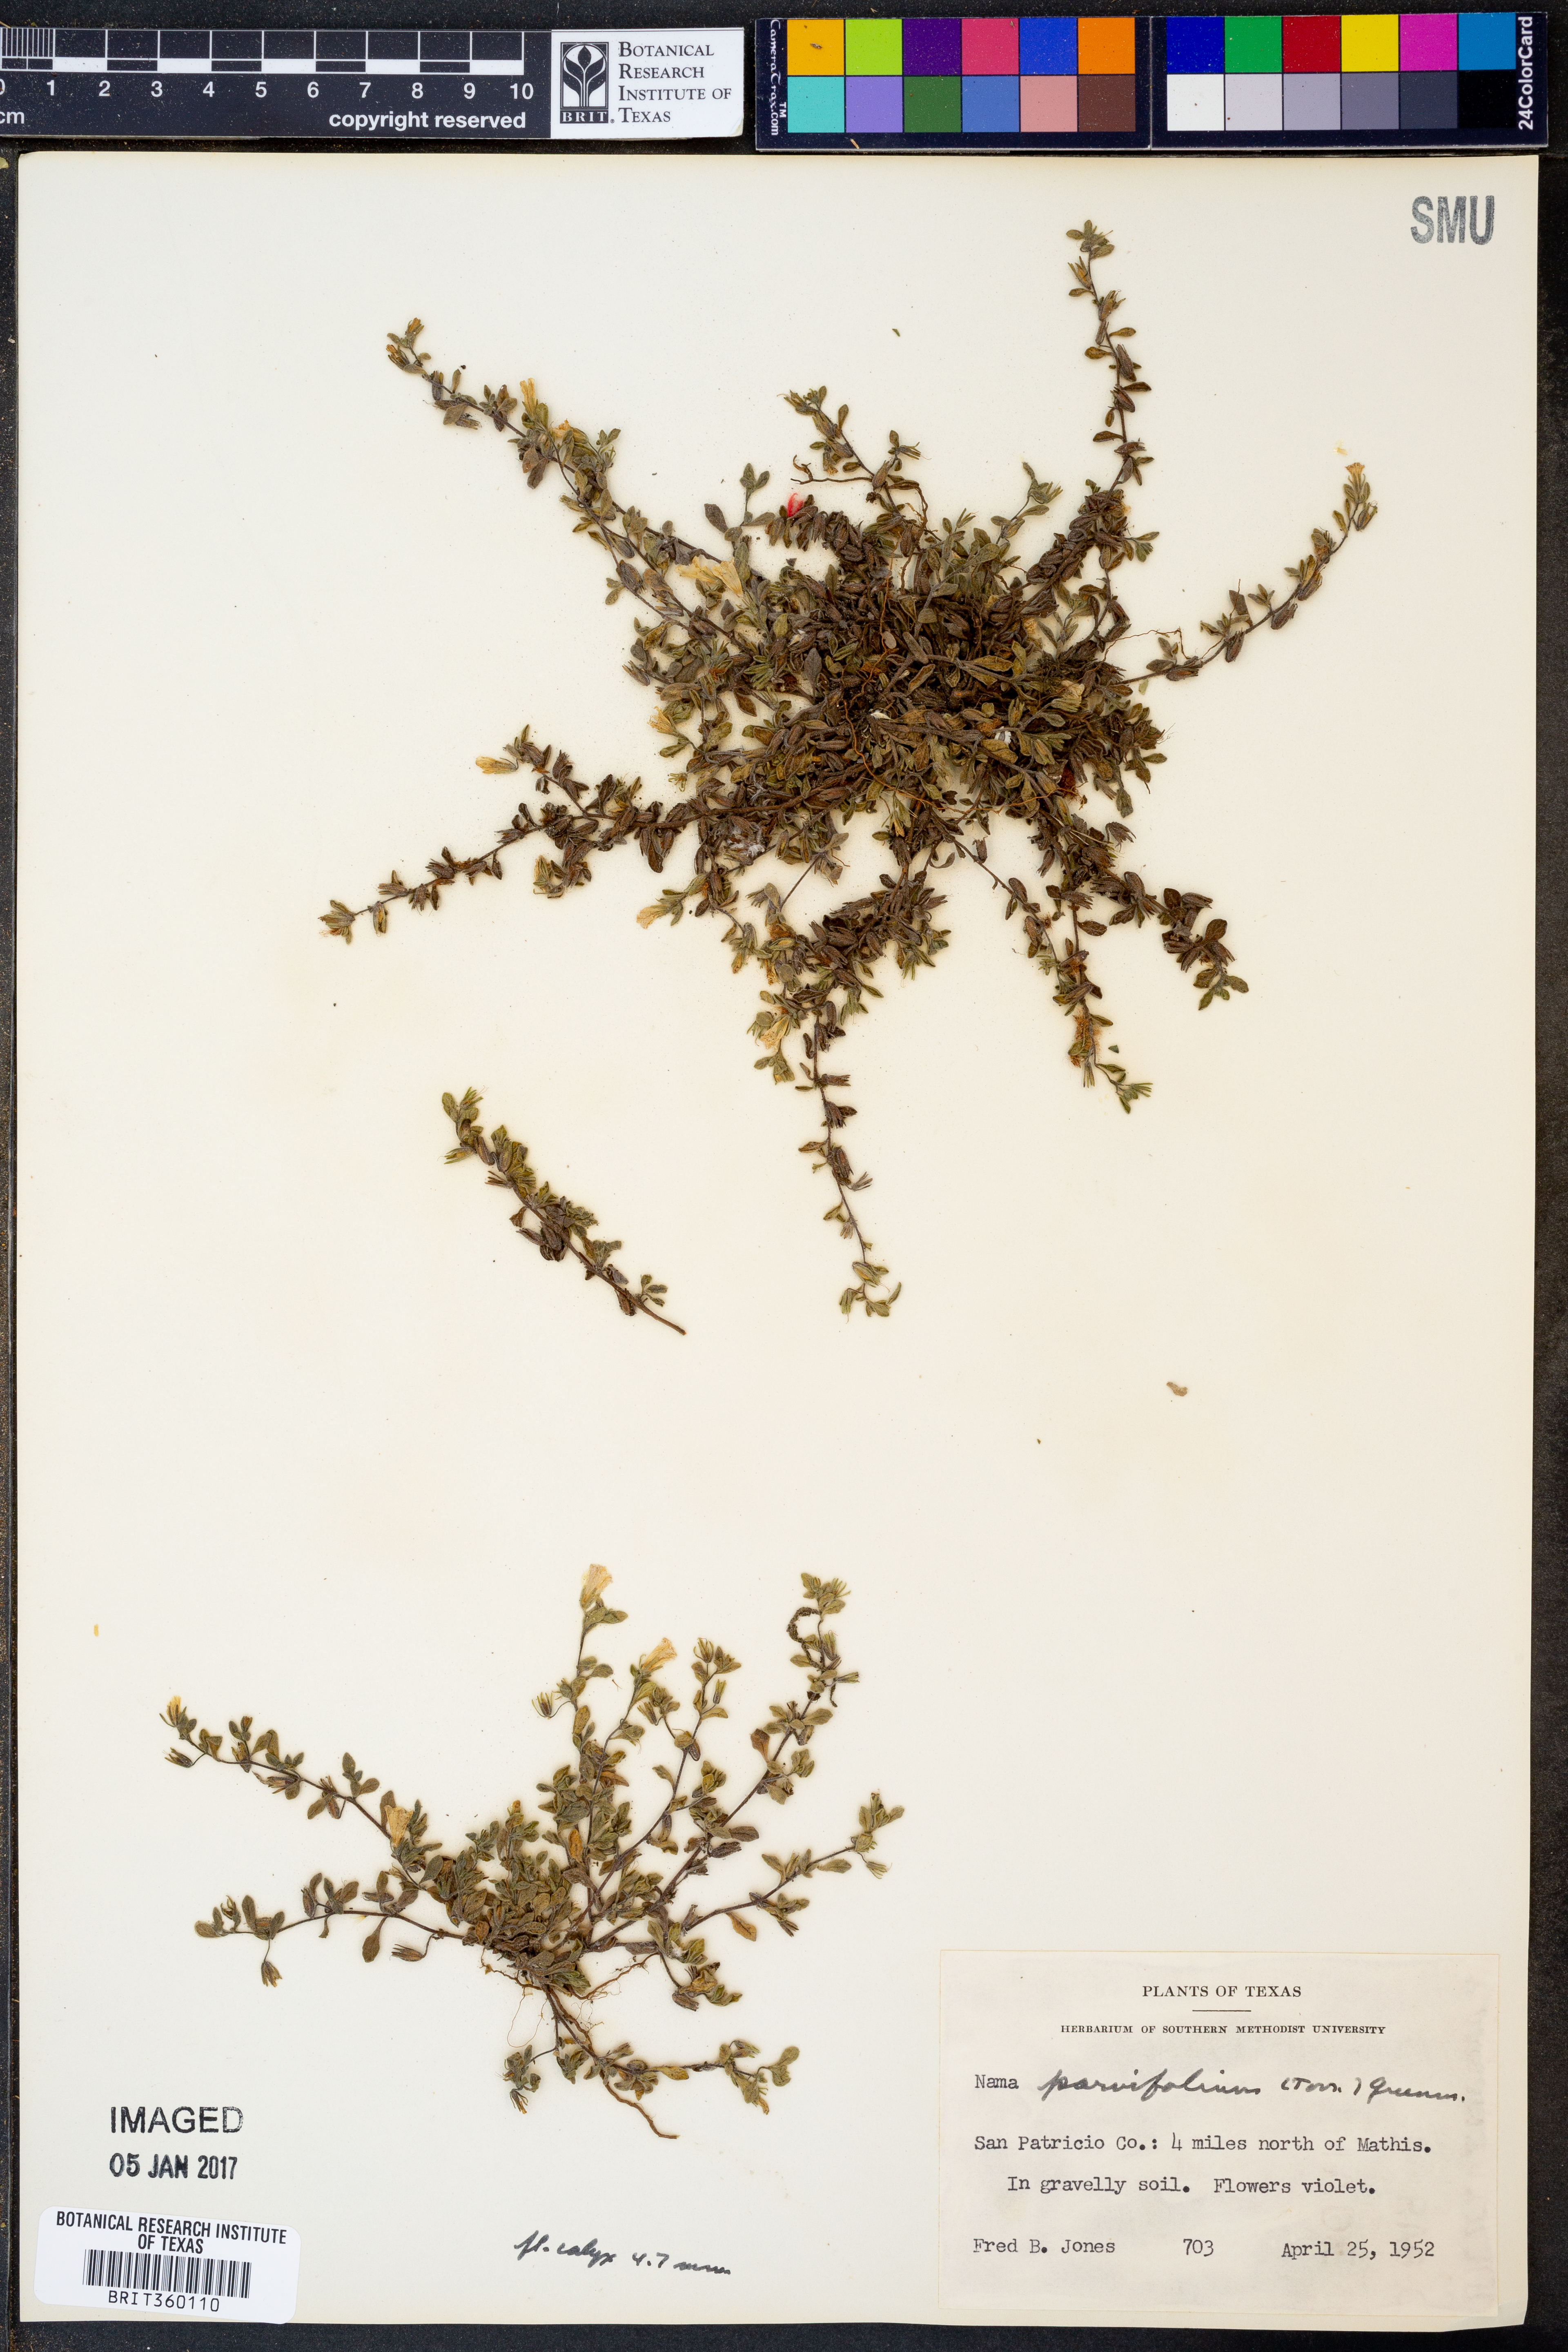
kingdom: Plantae
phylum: Tracheophyta
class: Magnoliopsida
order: Boraginales
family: Namaceae
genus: Nama
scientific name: Nama parvifolia
